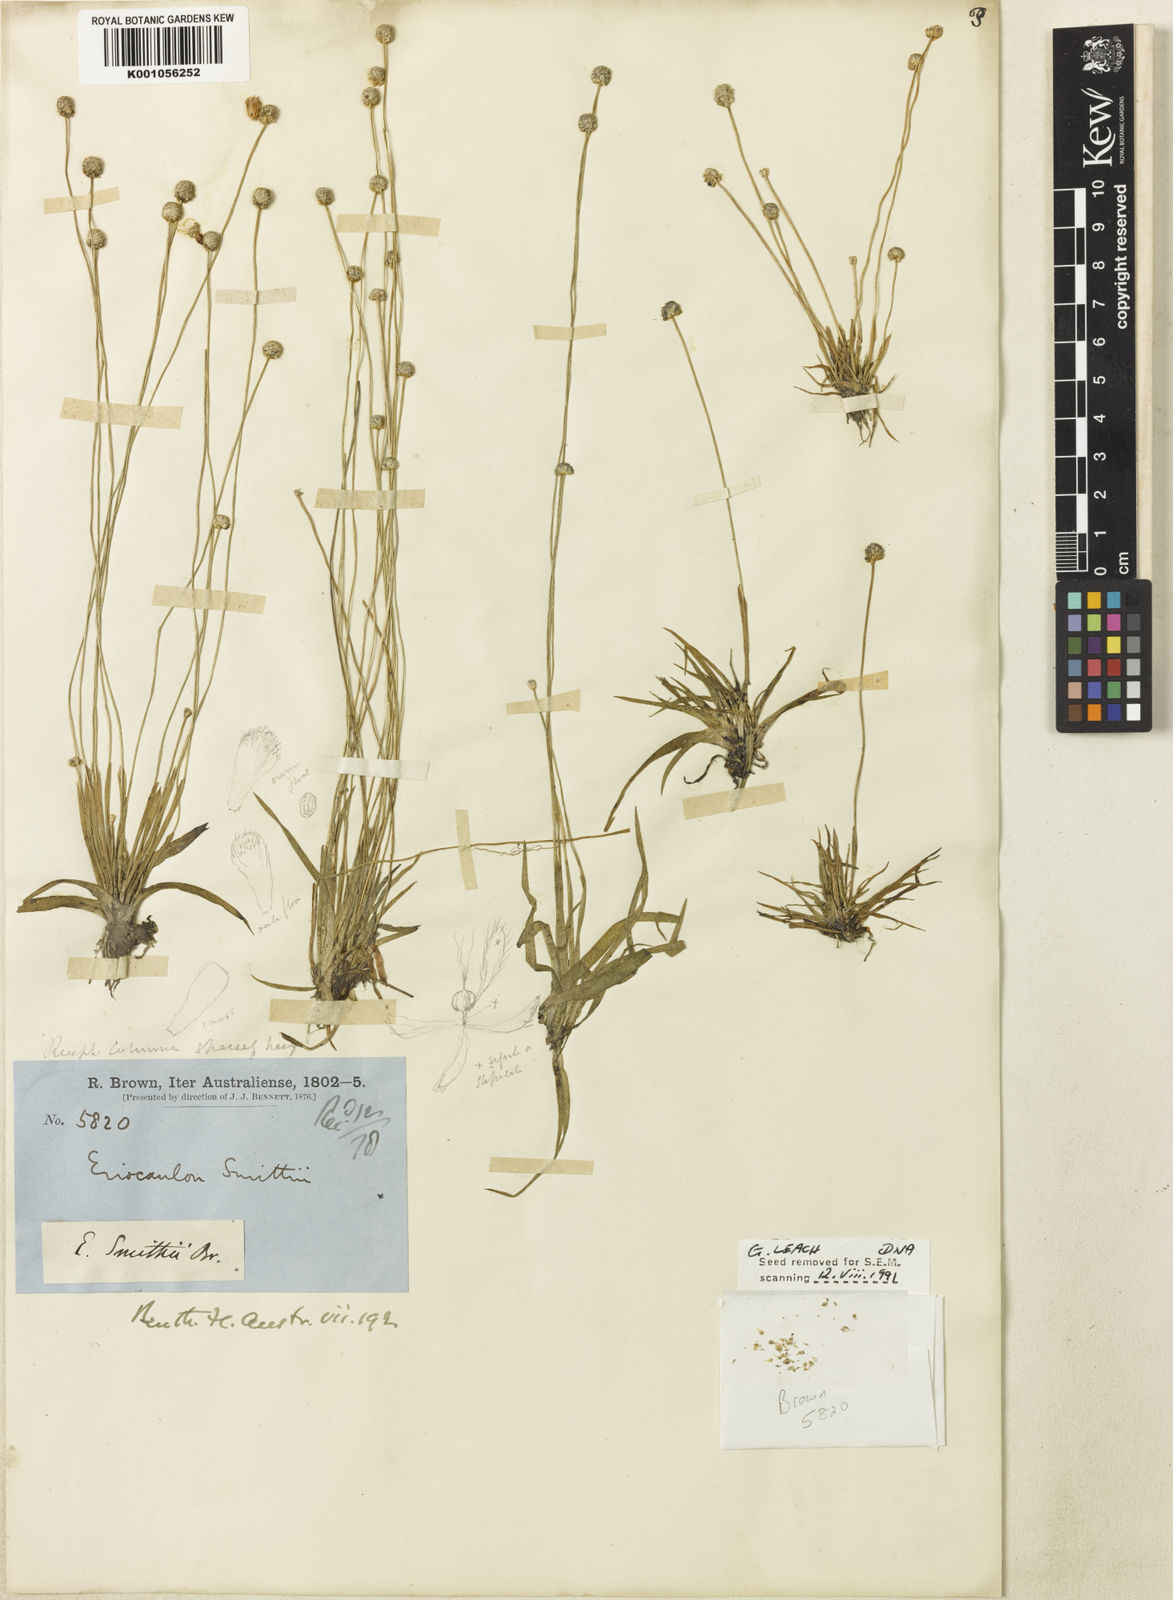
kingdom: Plantae
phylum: Tracheophyta
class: Liliopsida
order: Poales
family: Eriocaulaceae
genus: Eriocaulon
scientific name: Eriocaulon scariosum
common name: Rough pipewort
